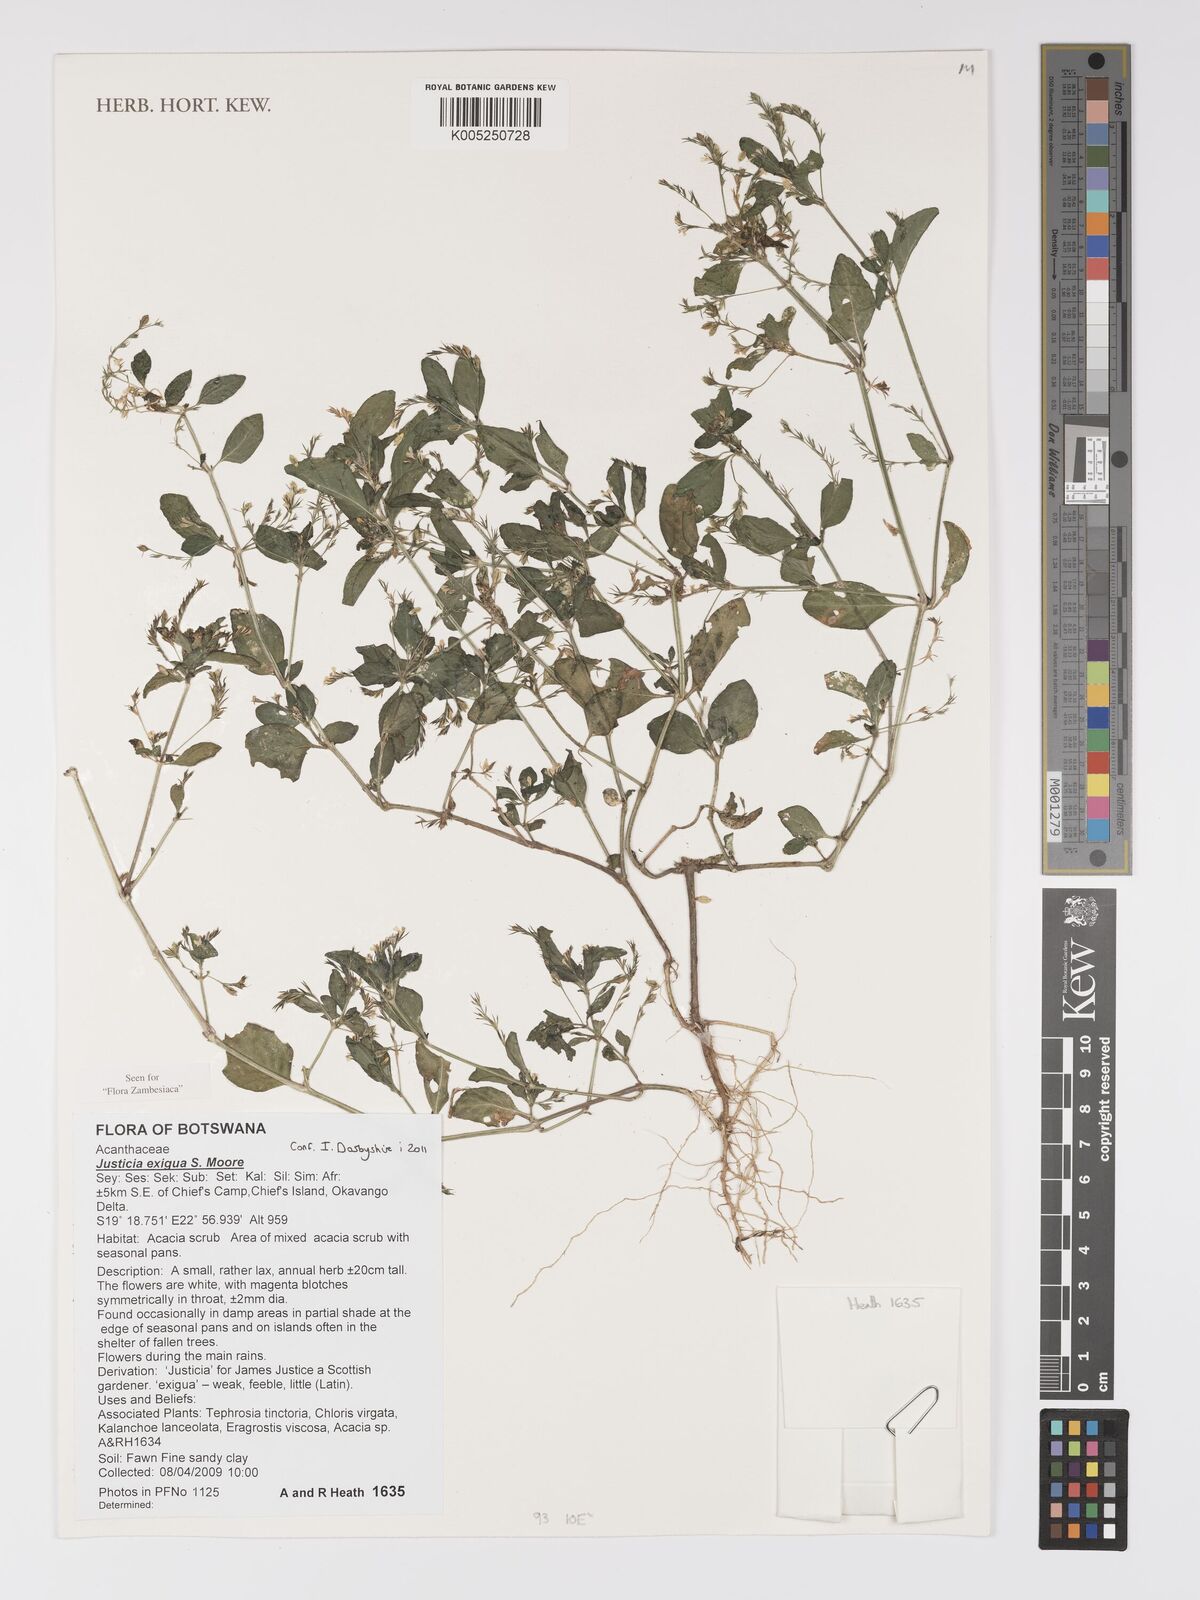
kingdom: Plantae
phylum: Tracheophyta
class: Magnoliopsida
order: Lamiales
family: Acanthaceae
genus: Justicia
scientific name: Justicia exigua
